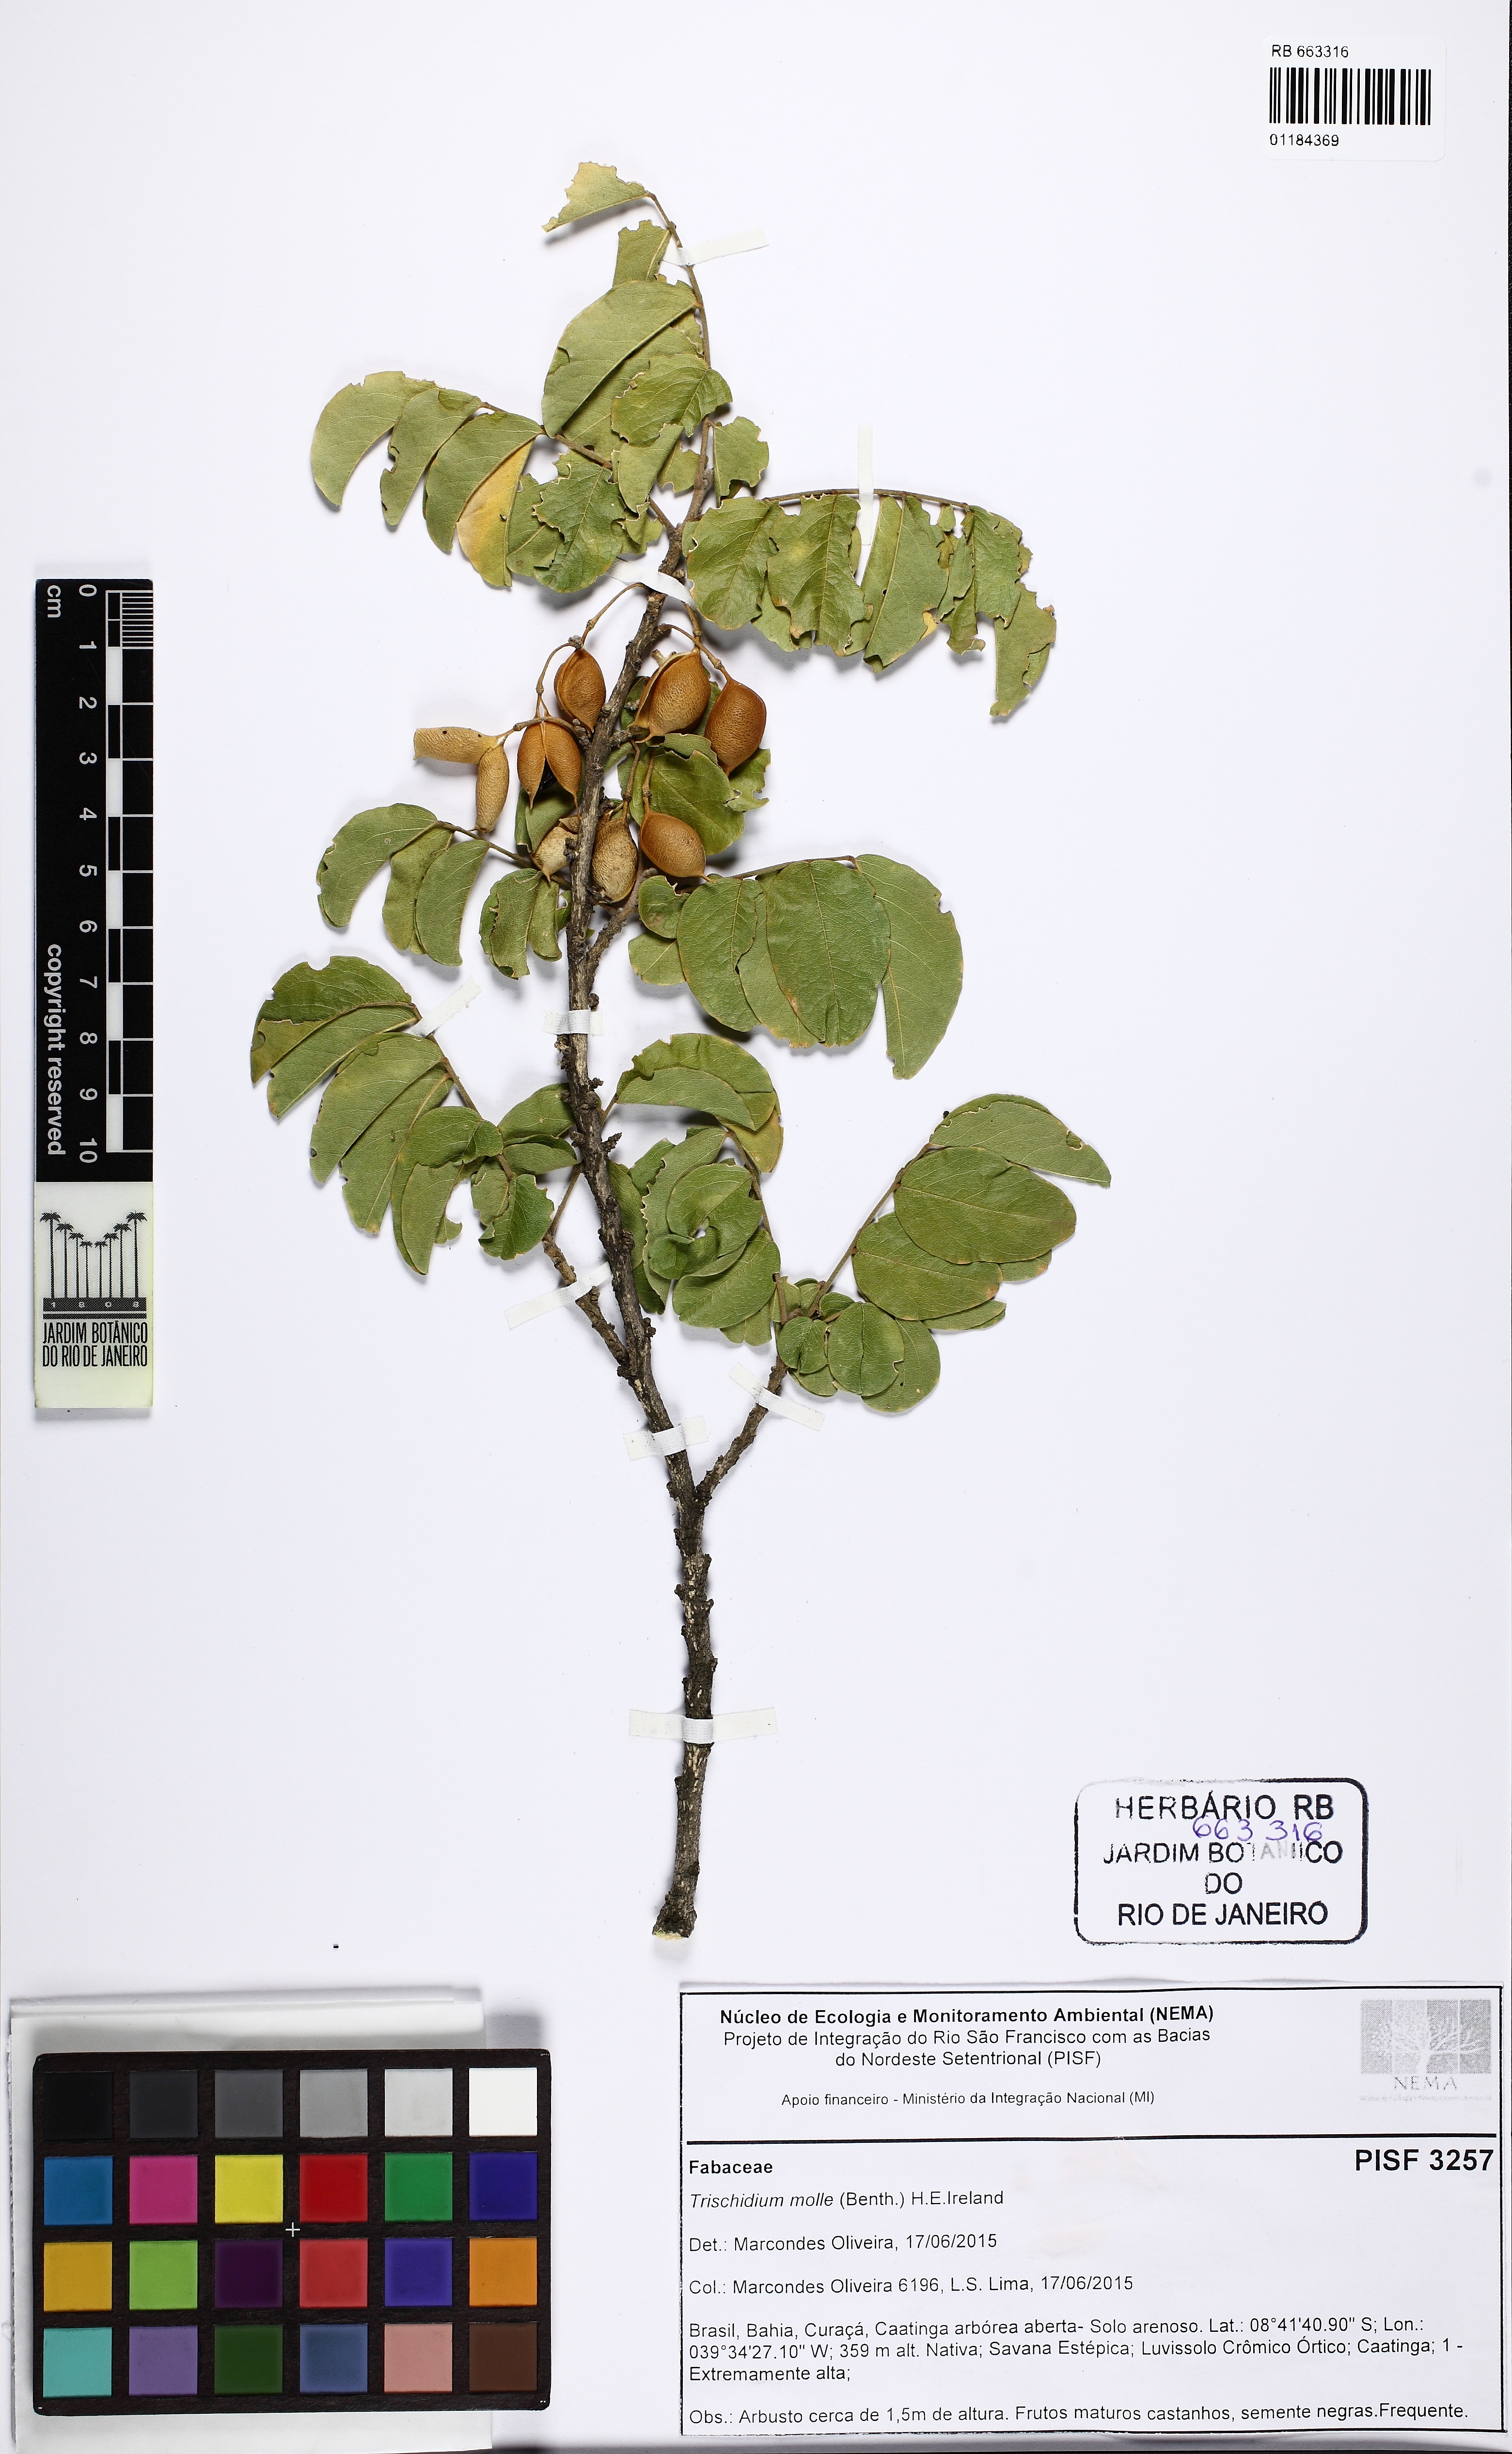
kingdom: Plantae
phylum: Tracheophyta
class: Magnoliopsida
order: Fabales
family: Fabaceae
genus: Trischidium
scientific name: Trischidium molle
